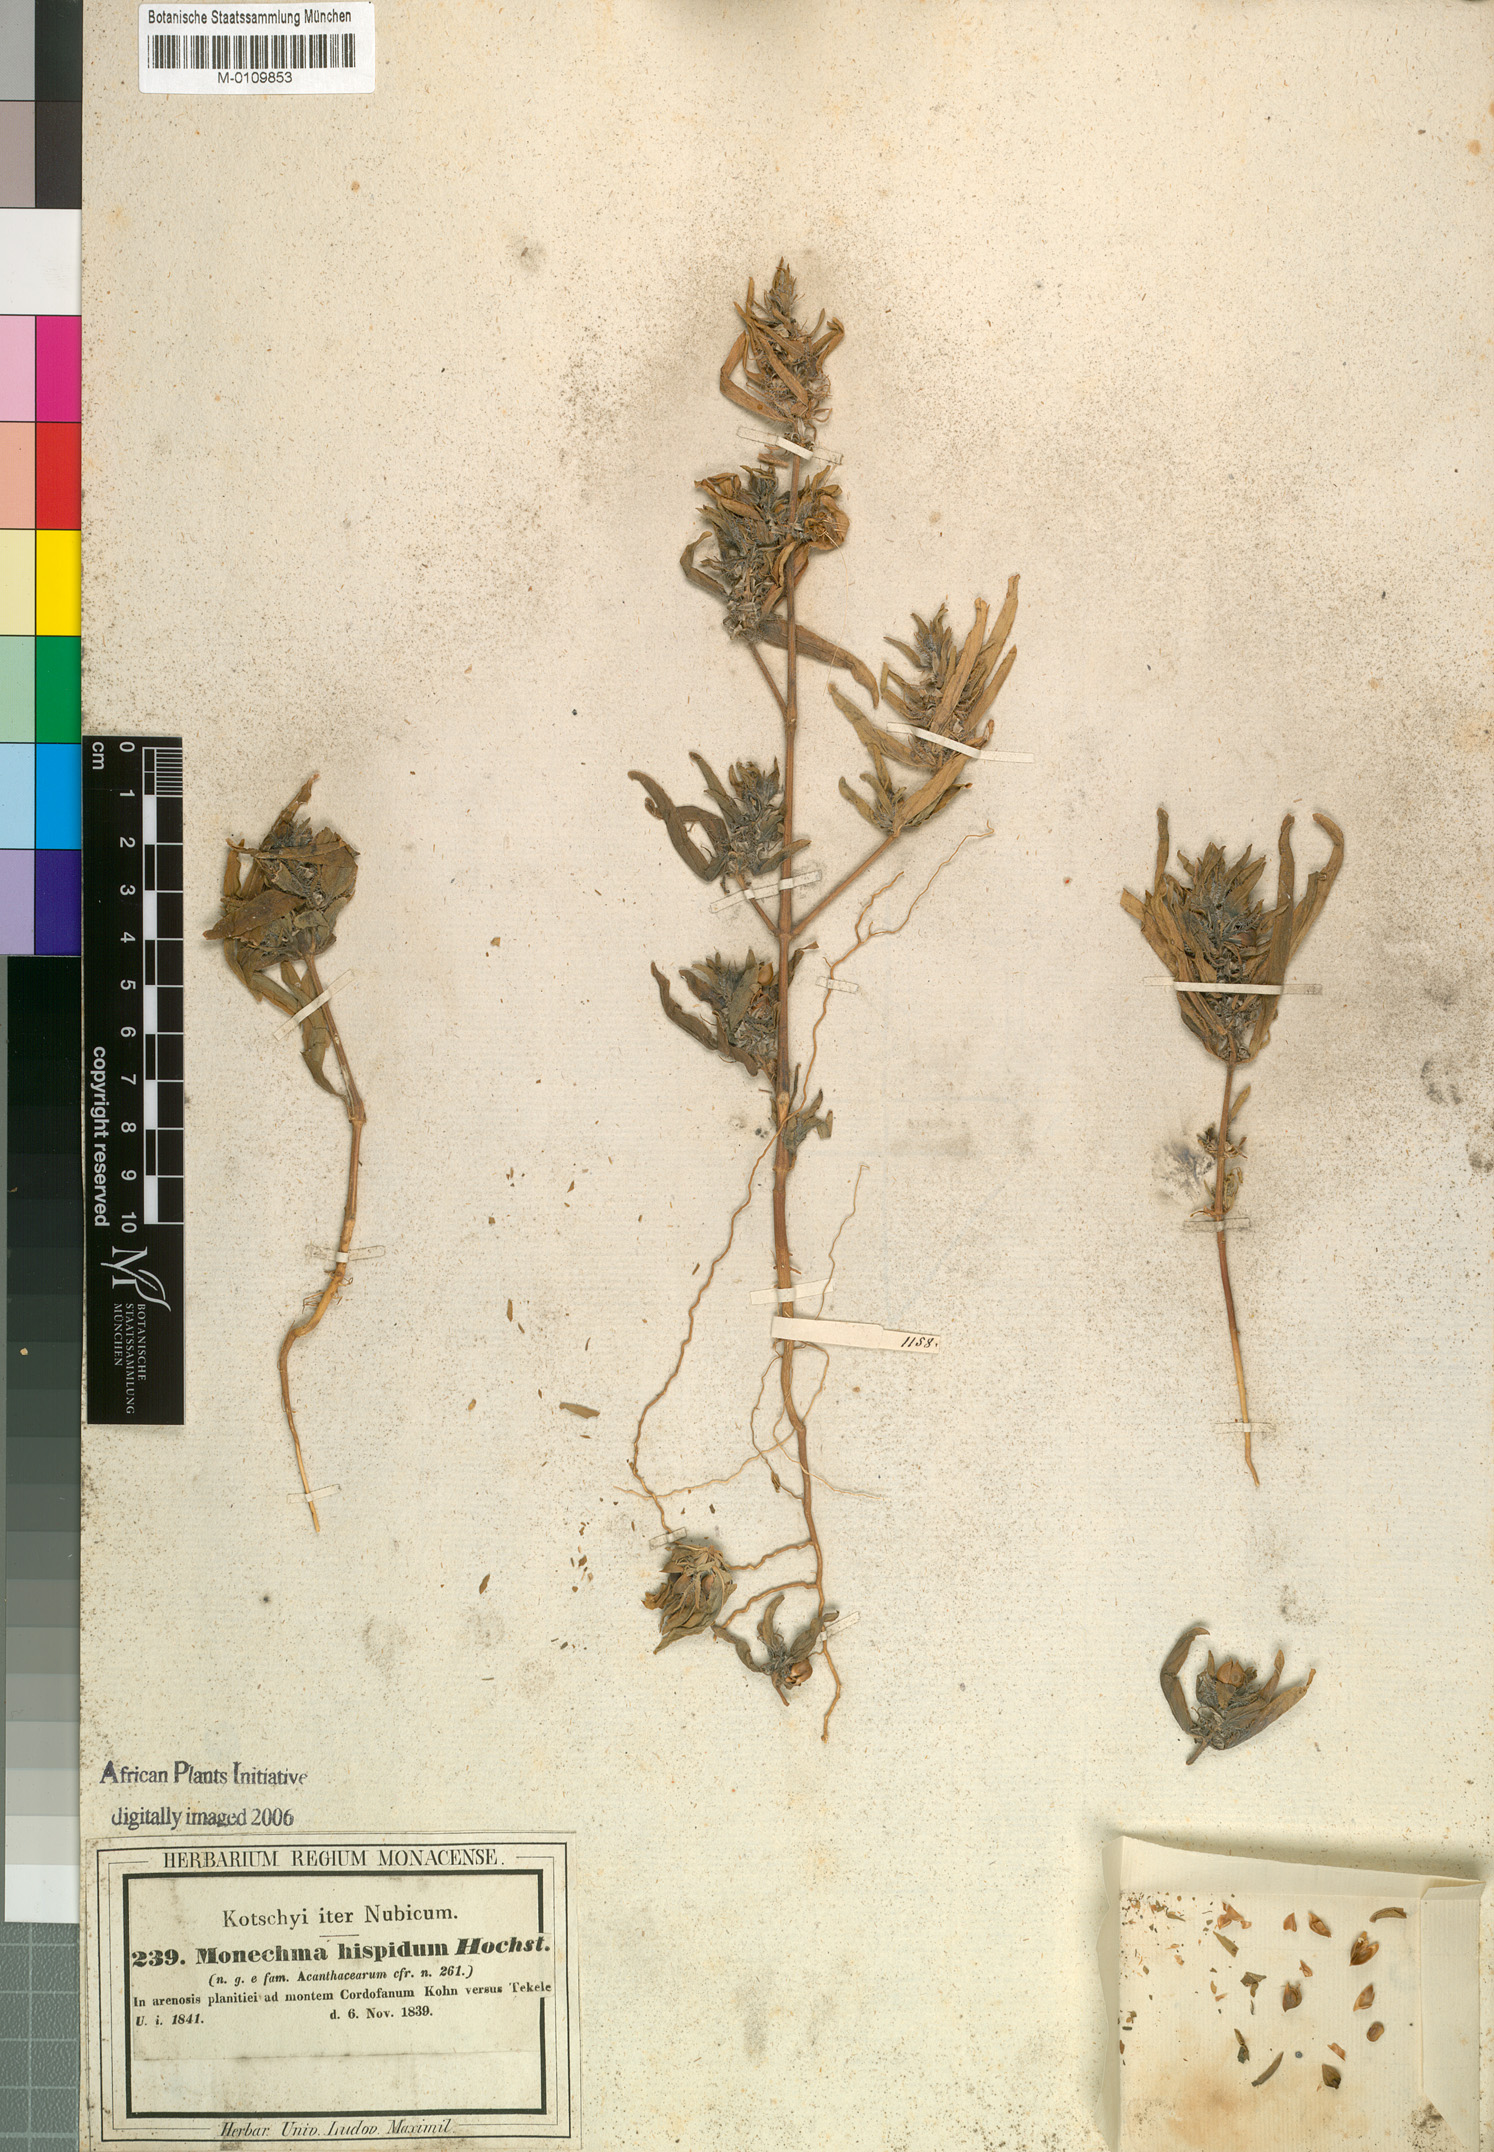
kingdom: Plantae
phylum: Tracheophyta
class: Magnoliopsida
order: Lamiales
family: Acanthaceae
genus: Monechma
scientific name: Monechma Schwabea ciliata
